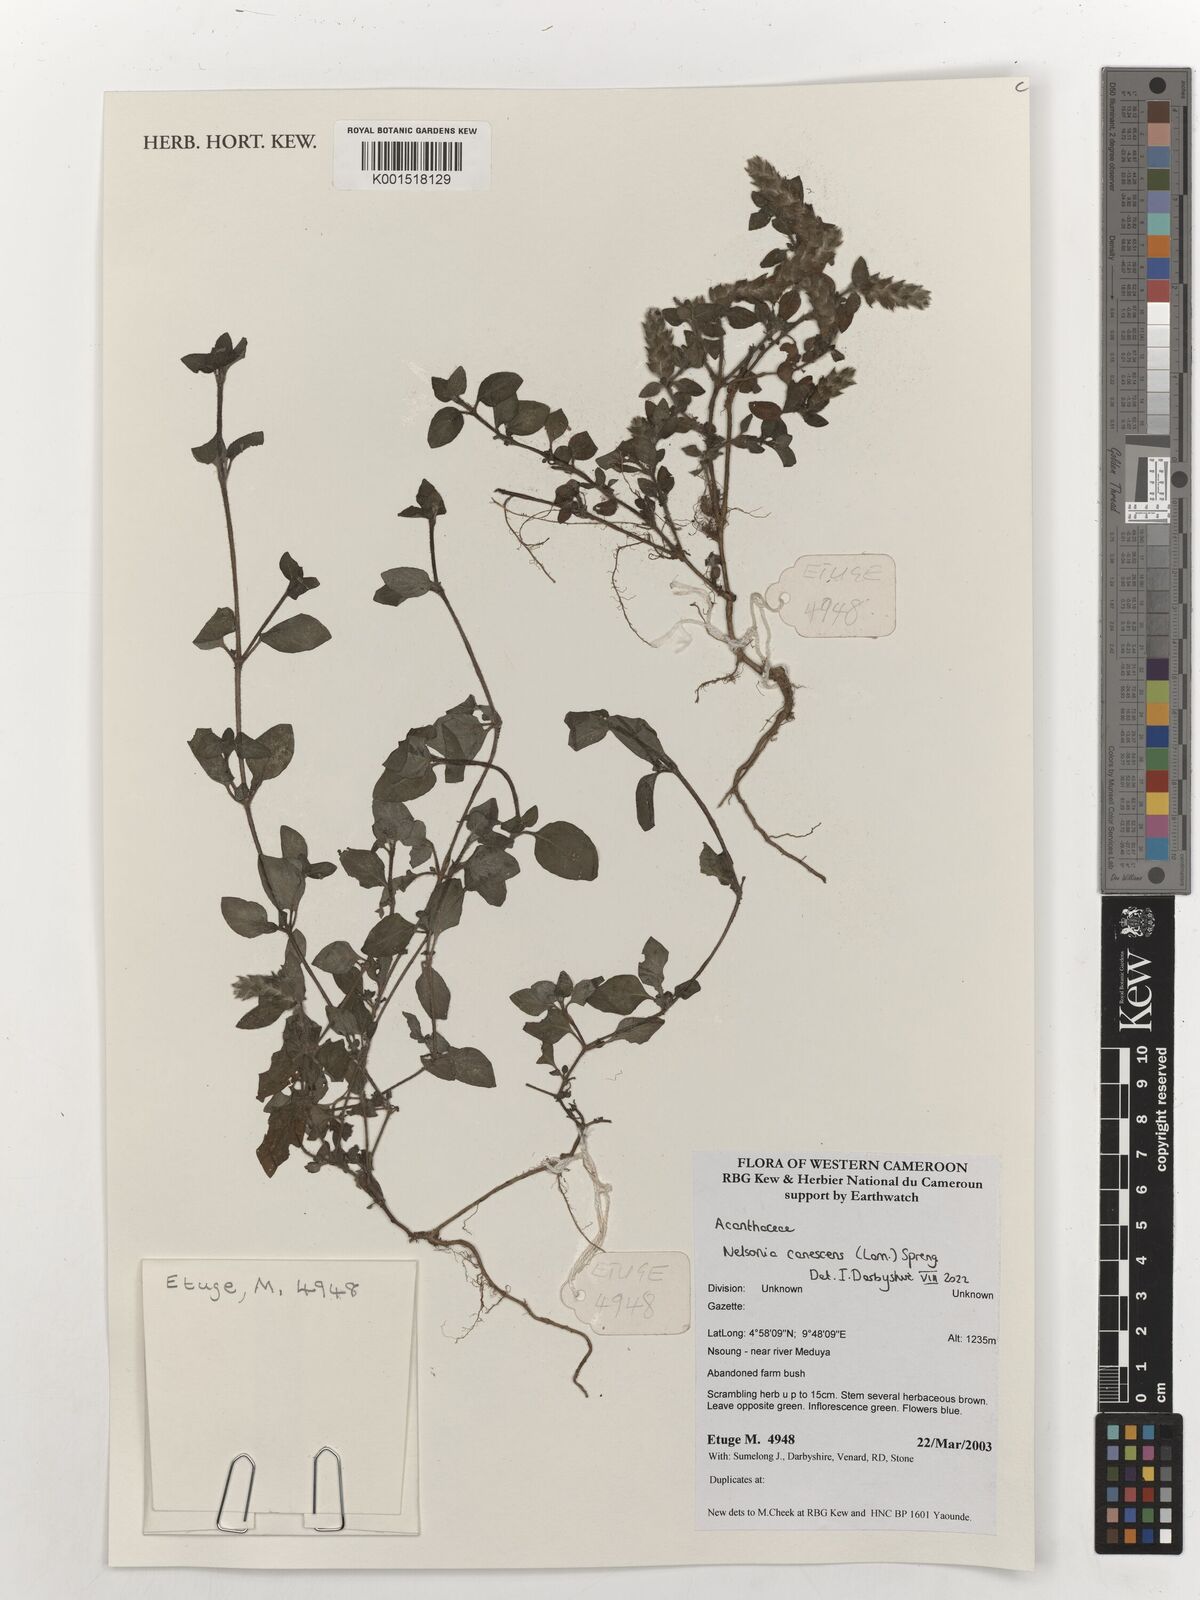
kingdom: Plantae
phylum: Tracheophyta
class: Magnoliopsida
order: Lamiales
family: Acanthaceae
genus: Nelsonia
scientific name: Nelsonia canescens
